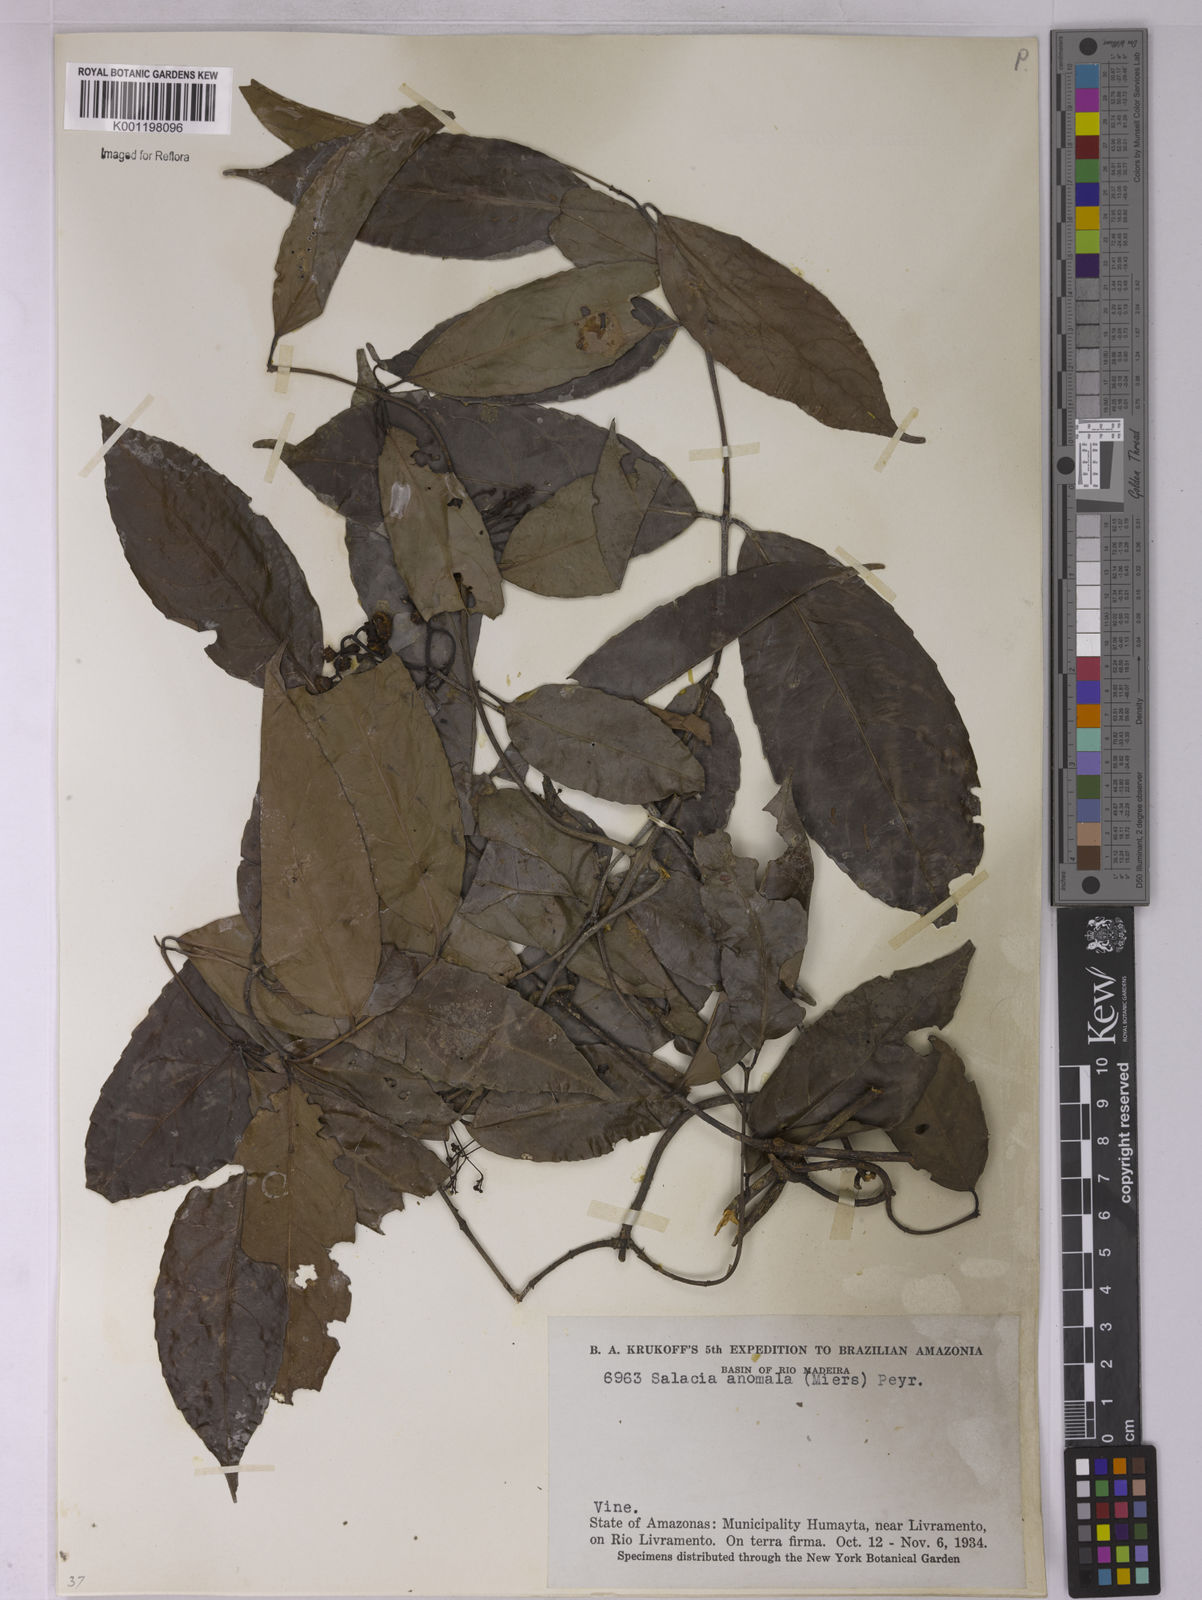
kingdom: Plantae
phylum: Tracheophyta
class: Magnoliopsida
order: Celastrales
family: Celastraceae
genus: Cheiloclinium
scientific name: Cheiloclinium anomalum
